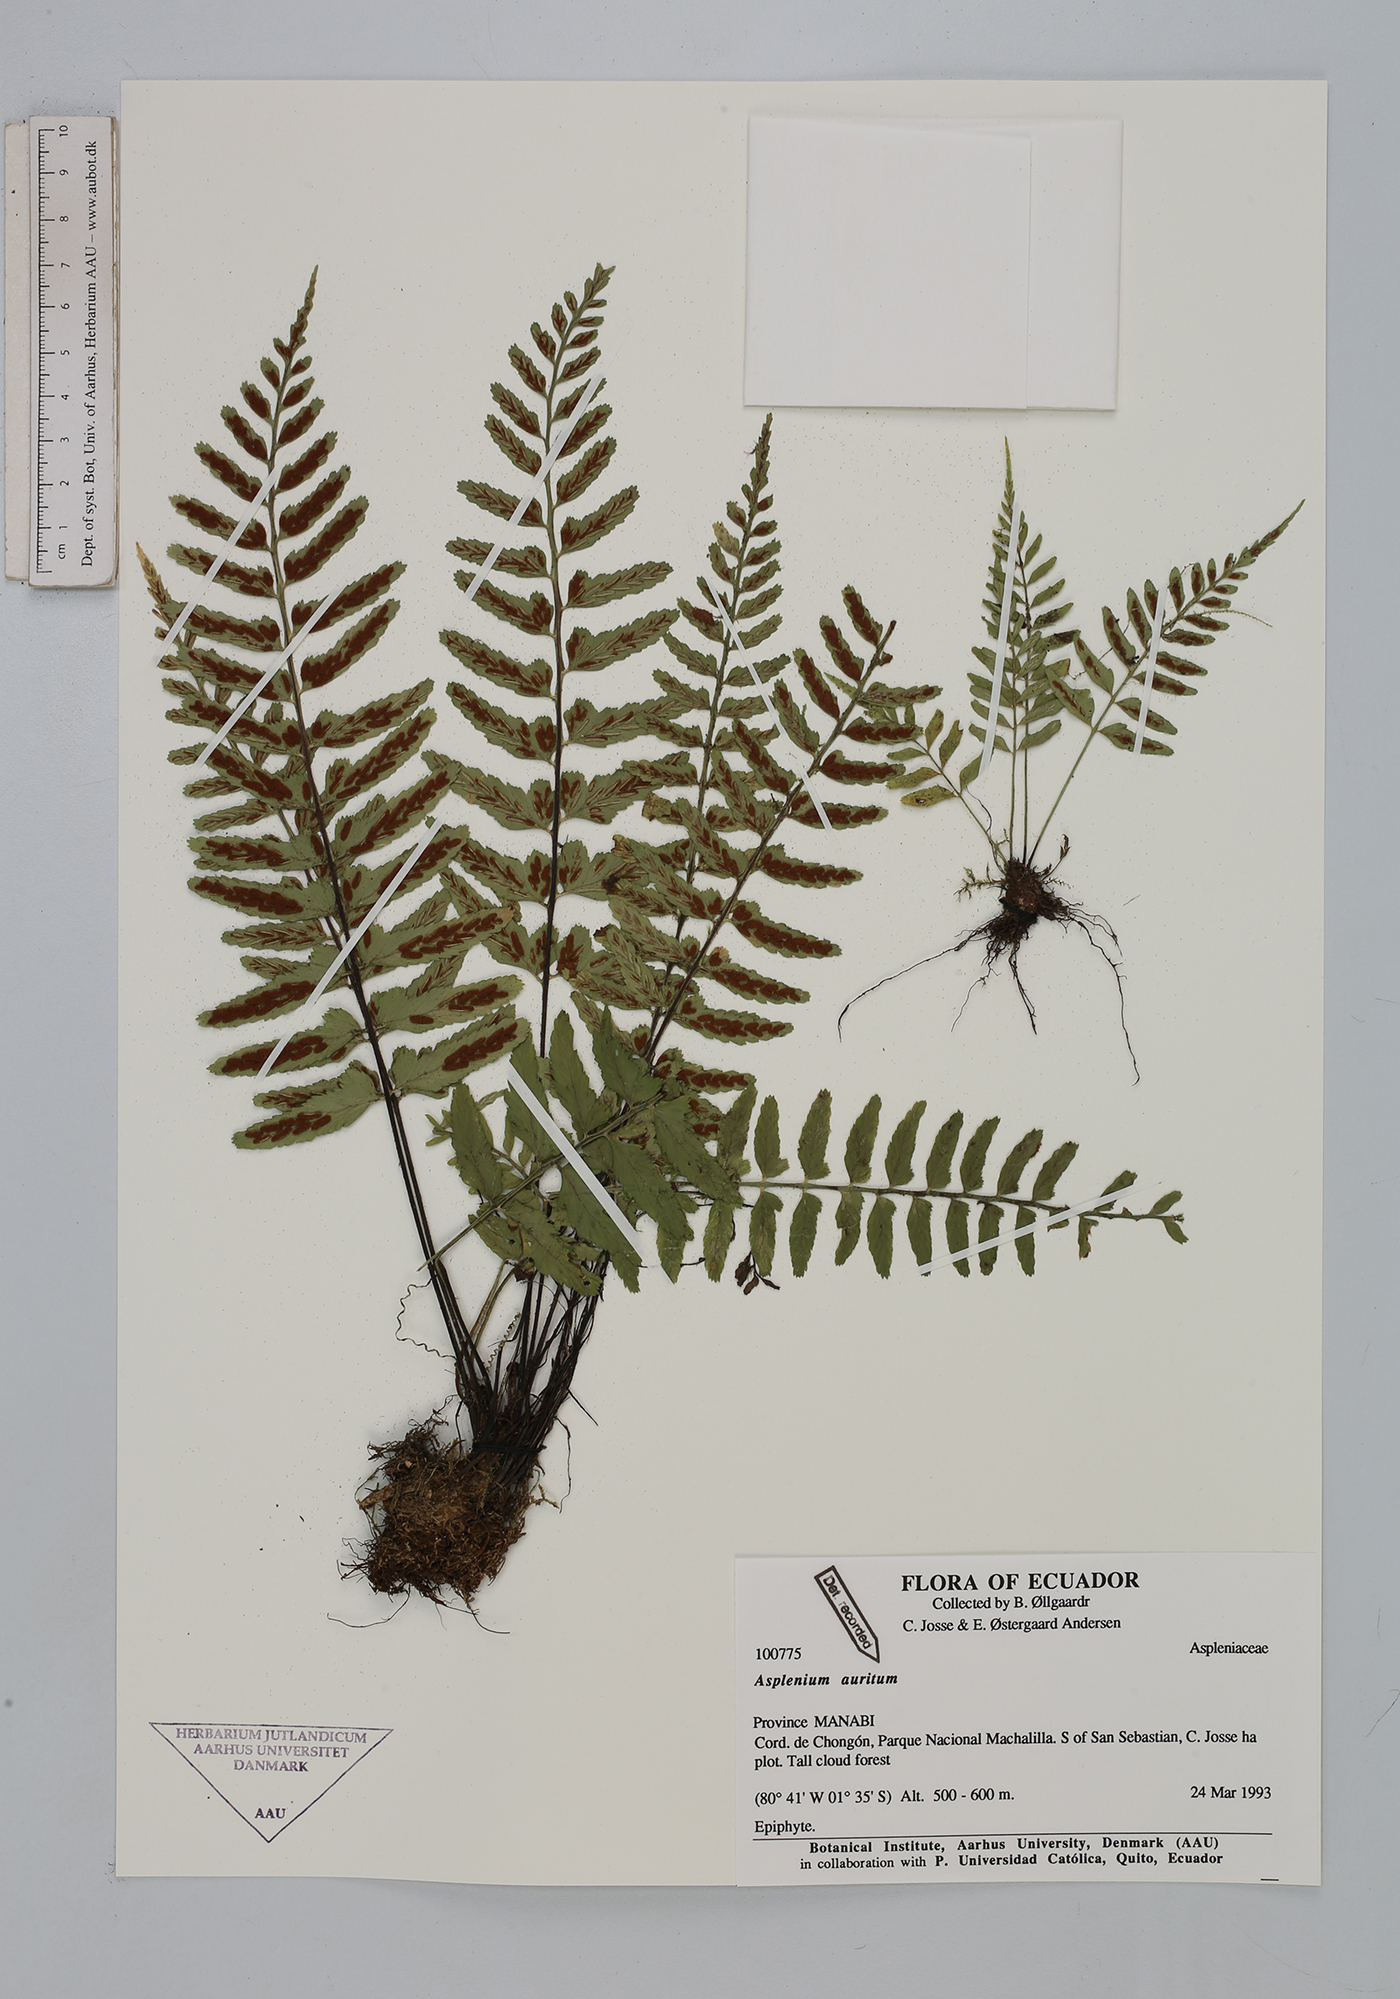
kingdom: Plantae
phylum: Tracheophyta
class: Polypodiopsida
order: Polypodiales
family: Aspleniaceae
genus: Asplenium
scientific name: Asplenium auritum
